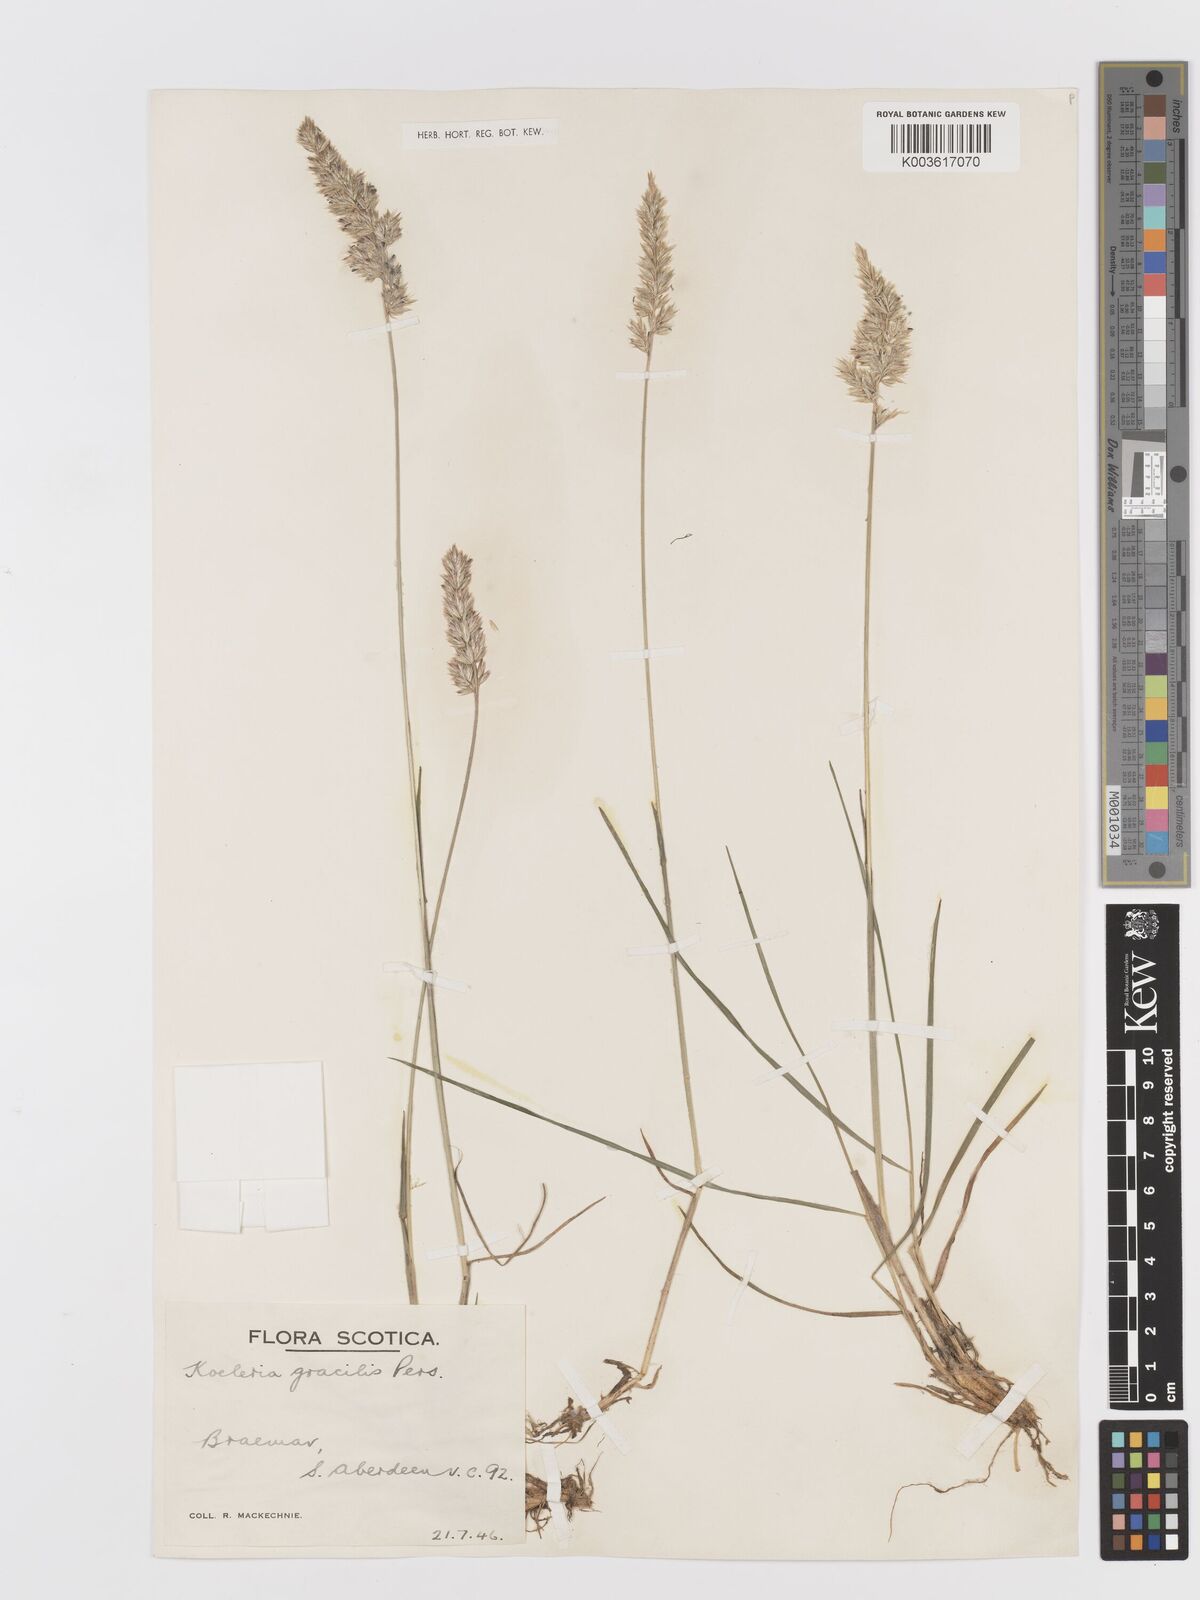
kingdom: Plantae
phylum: Tracheophyta
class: Liliopsida
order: Poales
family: Poaceae
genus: Koeleria
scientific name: Koeleria macrantha
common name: Crested hair-grass
